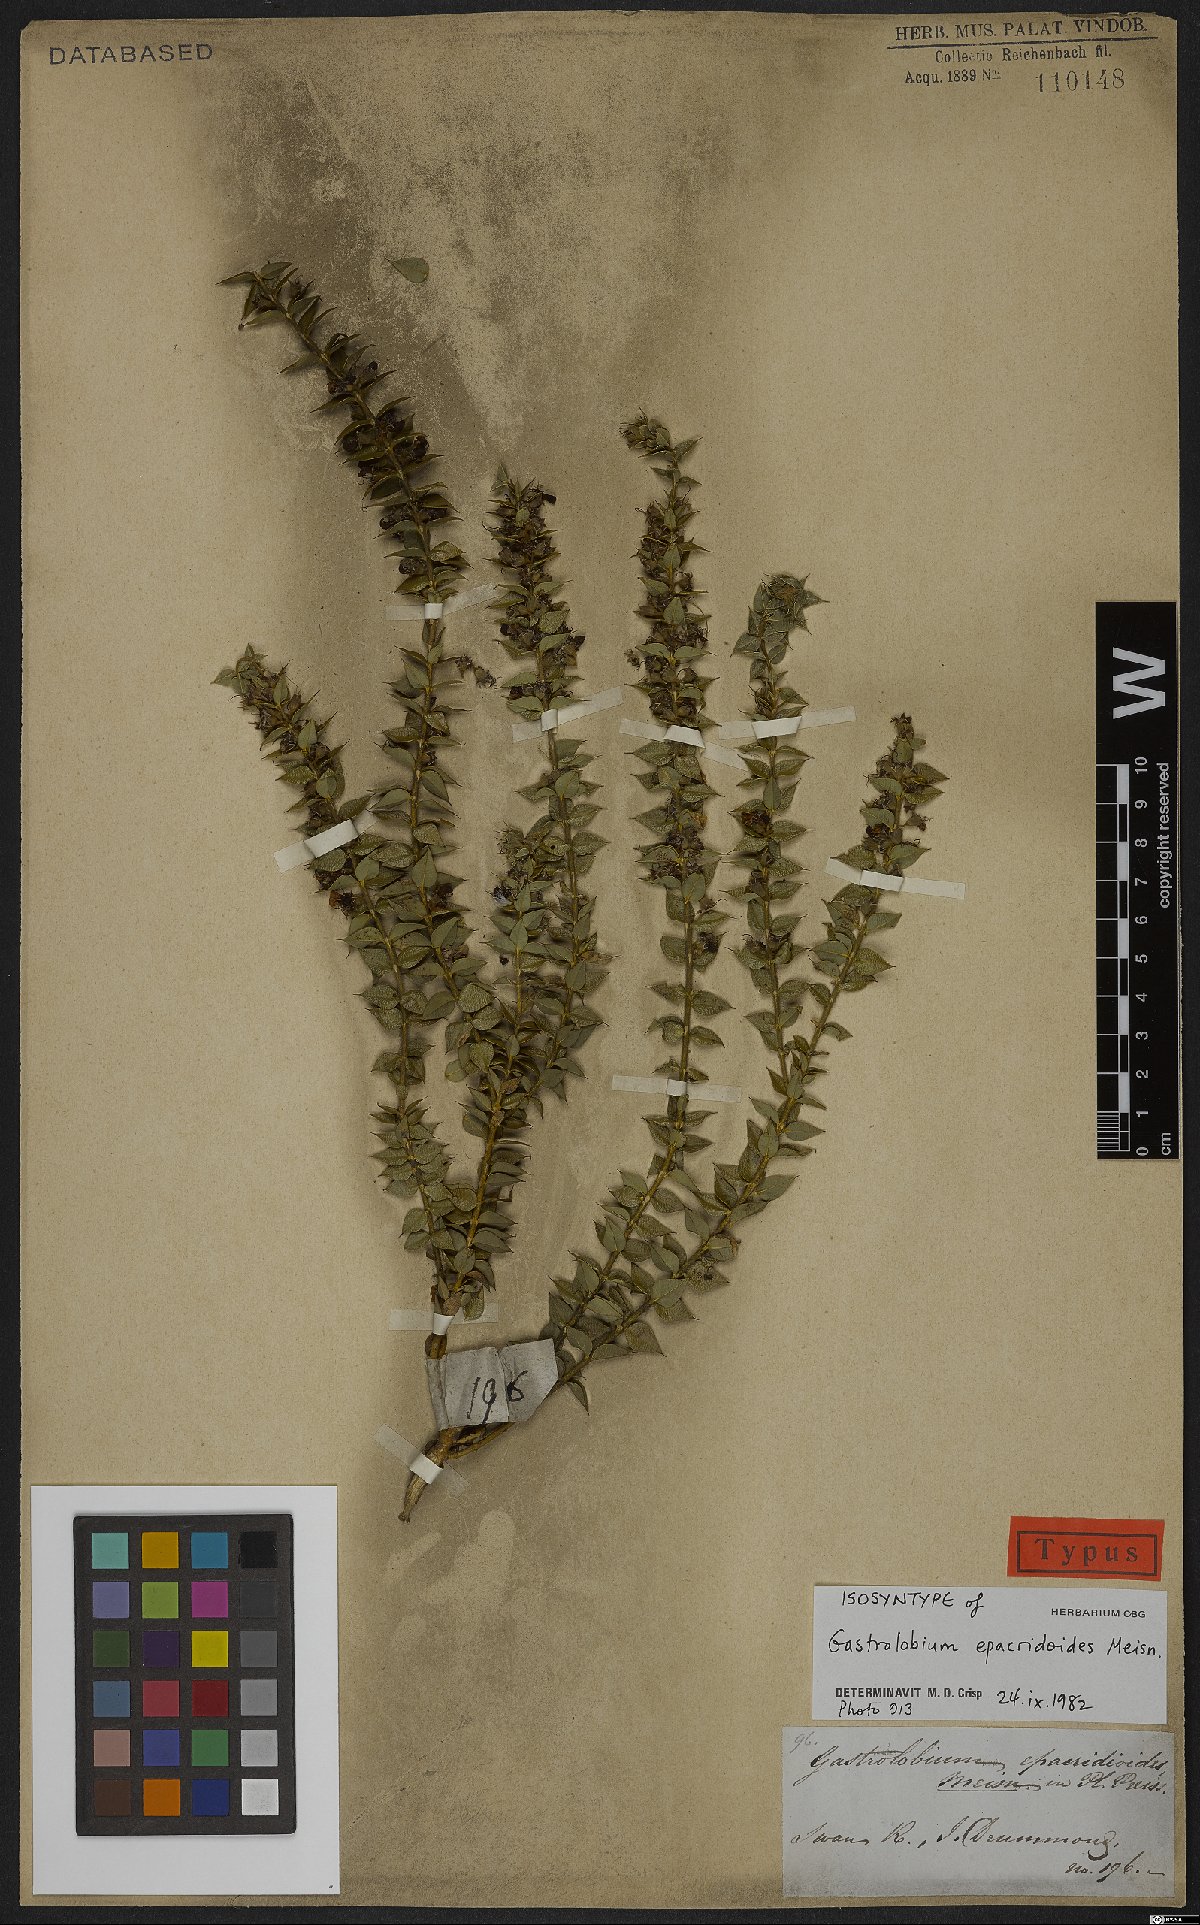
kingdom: Plantae
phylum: Tracheophyta
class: Magnoliopsida
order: Fabales
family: Fabaceae
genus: Gastrolobium
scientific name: Gastrolobium Nemcia epacridoides
